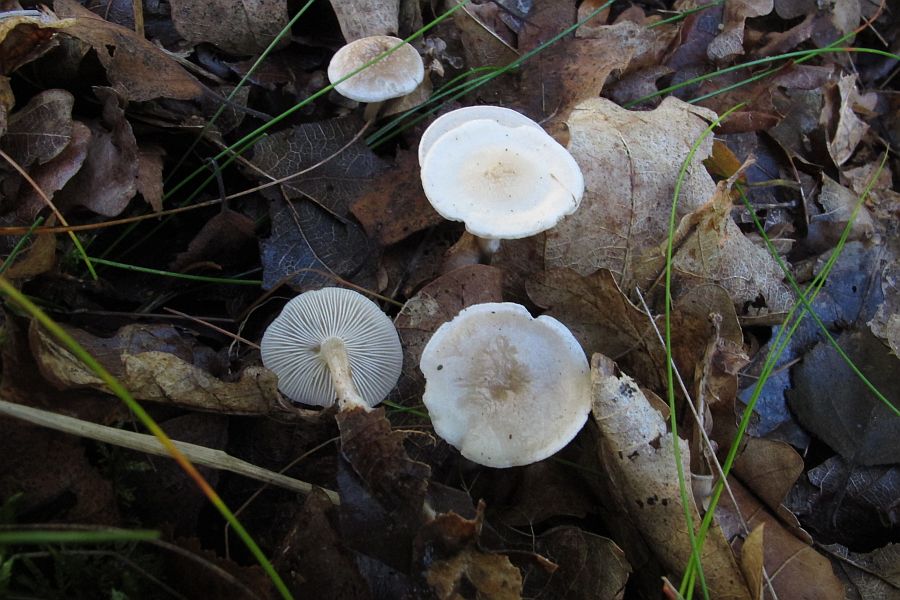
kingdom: Fungi
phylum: Basidiomycota
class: Agaricomycetes
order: Agaricales
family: Tricholomataceae
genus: Leucocybe
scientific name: Leucocybe candicans
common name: kridt-tragthat
